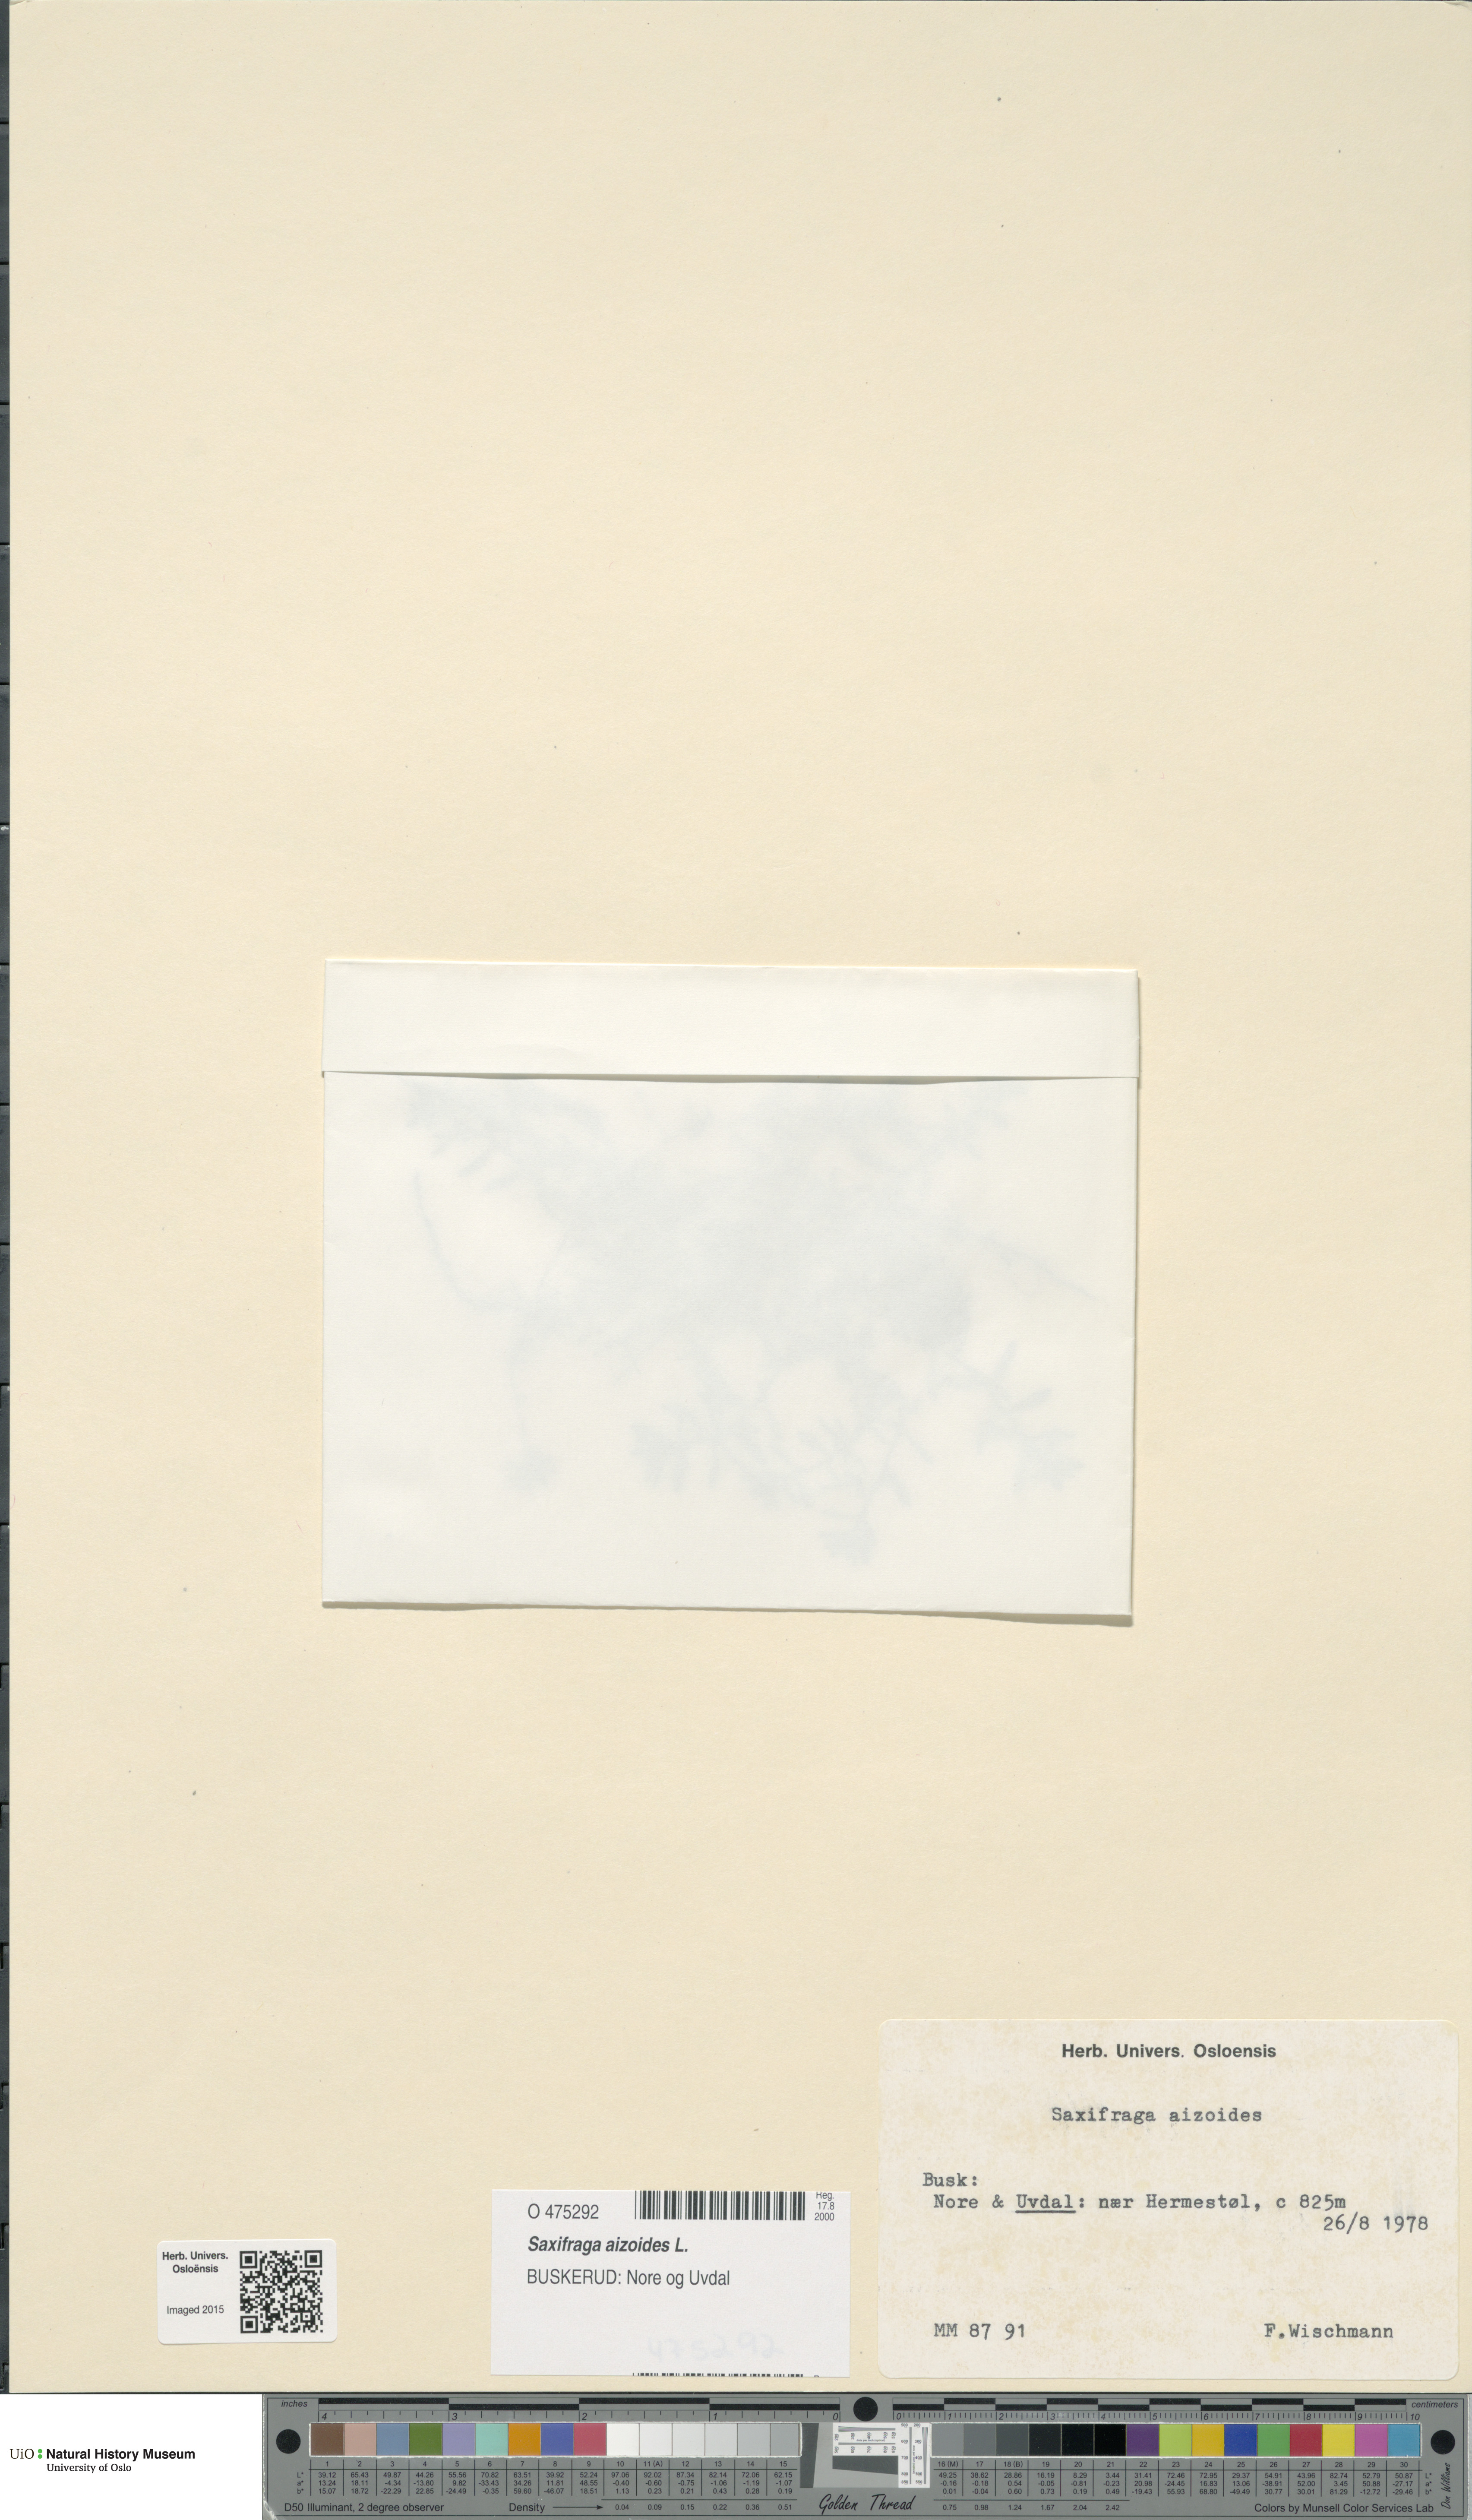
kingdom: Plantae
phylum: Tracheophyta
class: Magnoliopsida
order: Saxifragales
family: Saxifragaceae
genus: Saxifraga
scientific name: Saxifraga aizoides
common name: Yellow mountain saxifrage
